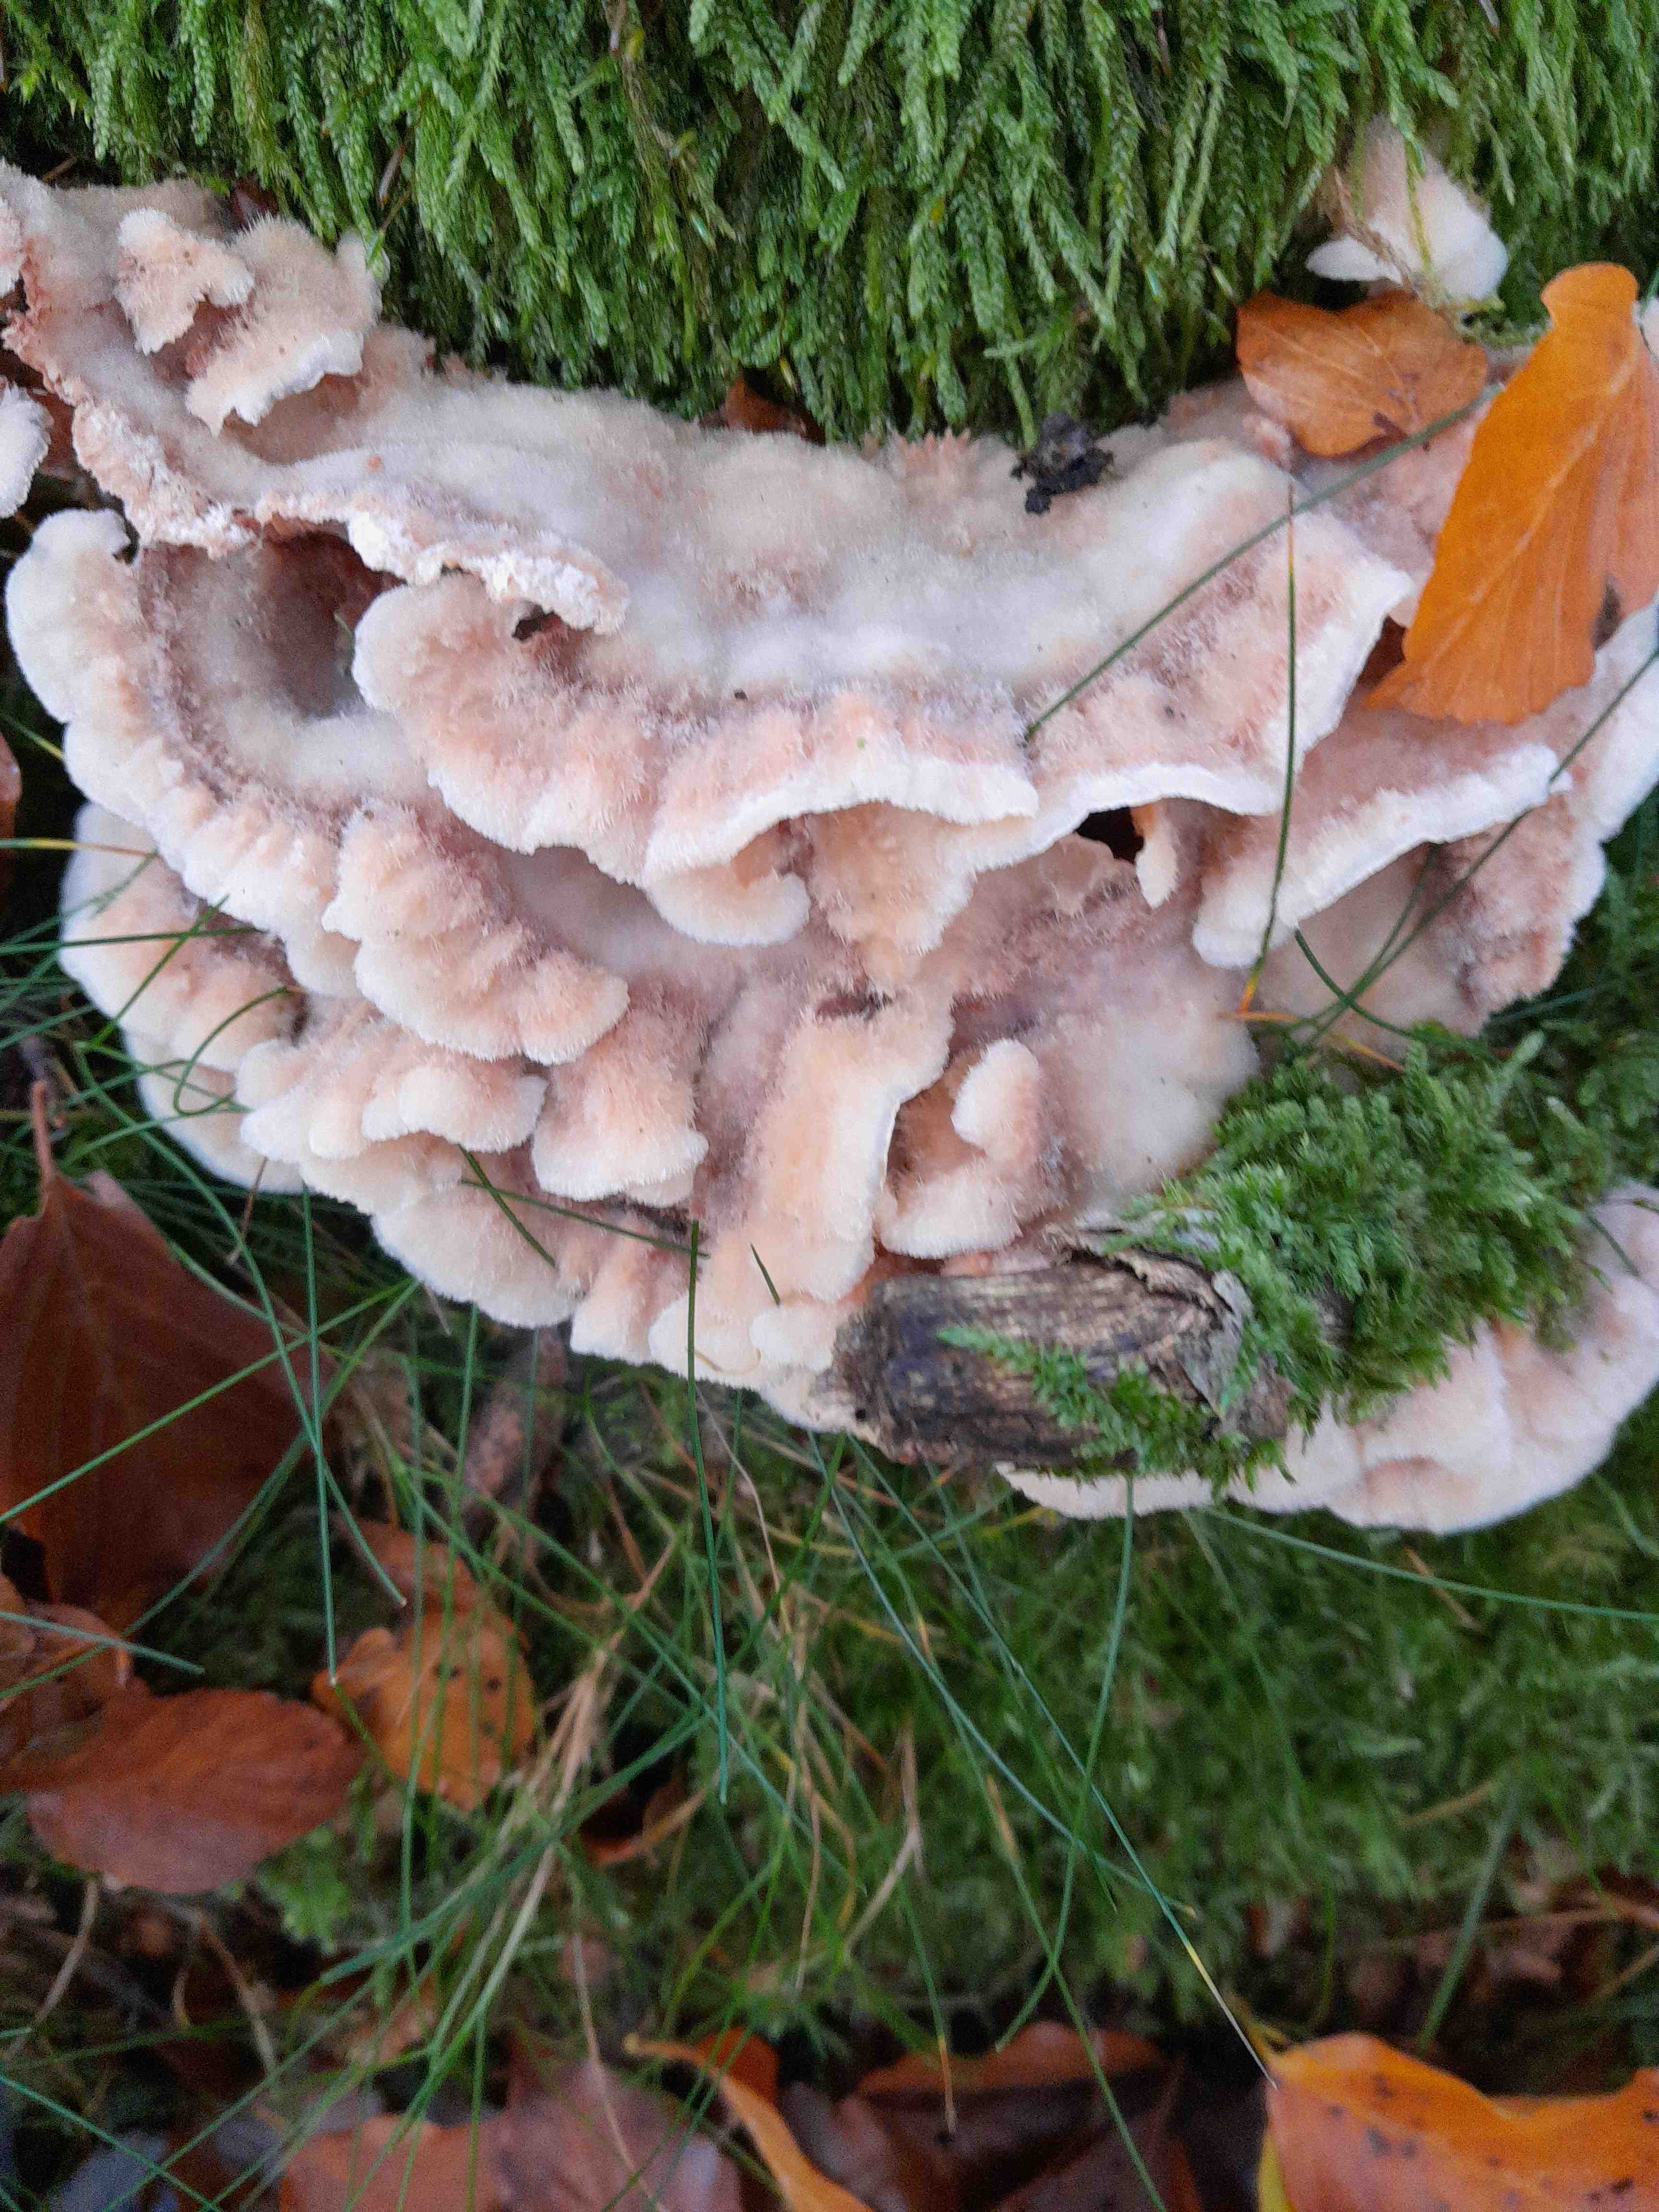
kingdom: Fungi
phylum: Basidiomycota
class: Agaricomycetes
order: Polyporales
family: Meruliaceae
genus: Phlebia
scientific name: Phlebia tremellosa
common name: bævrende åresvamp
